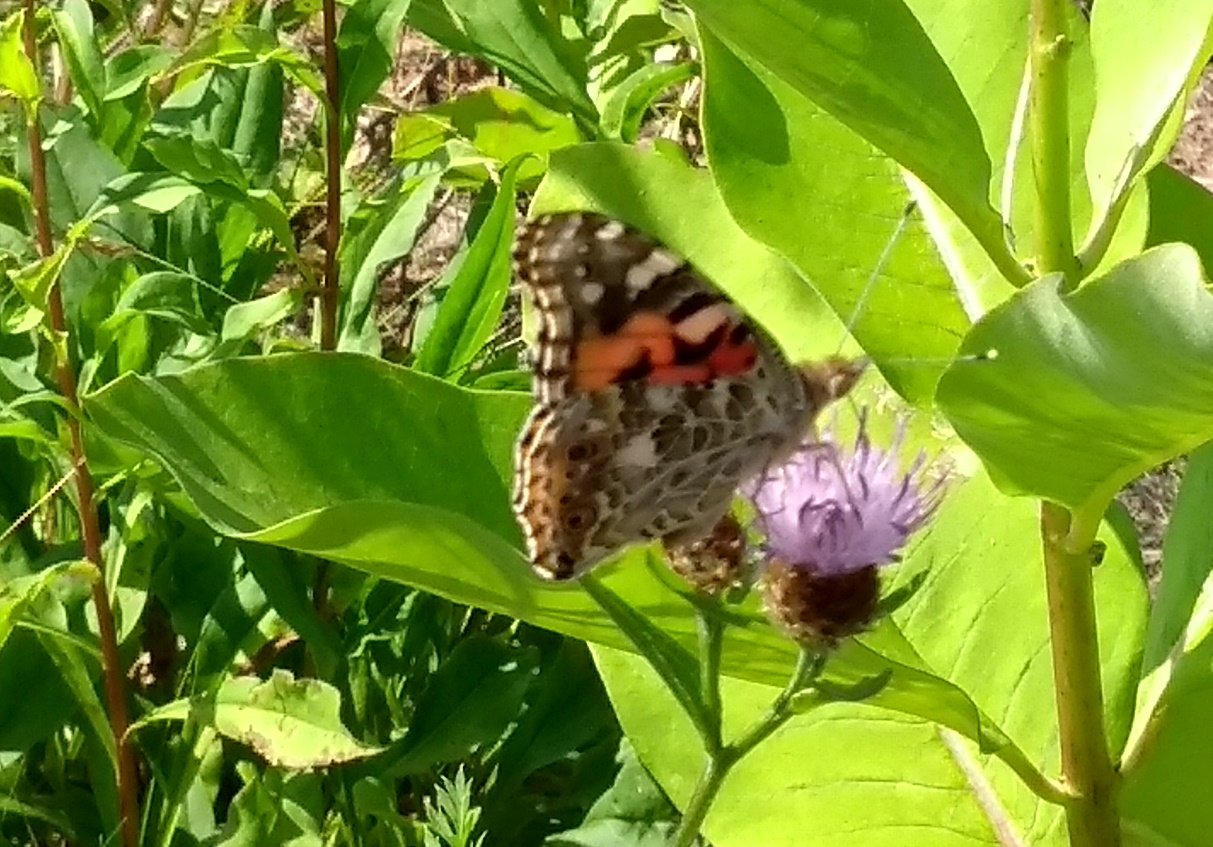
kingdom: Animalia
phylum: Arthropoda
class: Insecta
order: Lepidoptera
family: Nymphalidae
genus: Vanessa
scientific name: Vanessa cardui
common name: Painted Lady
